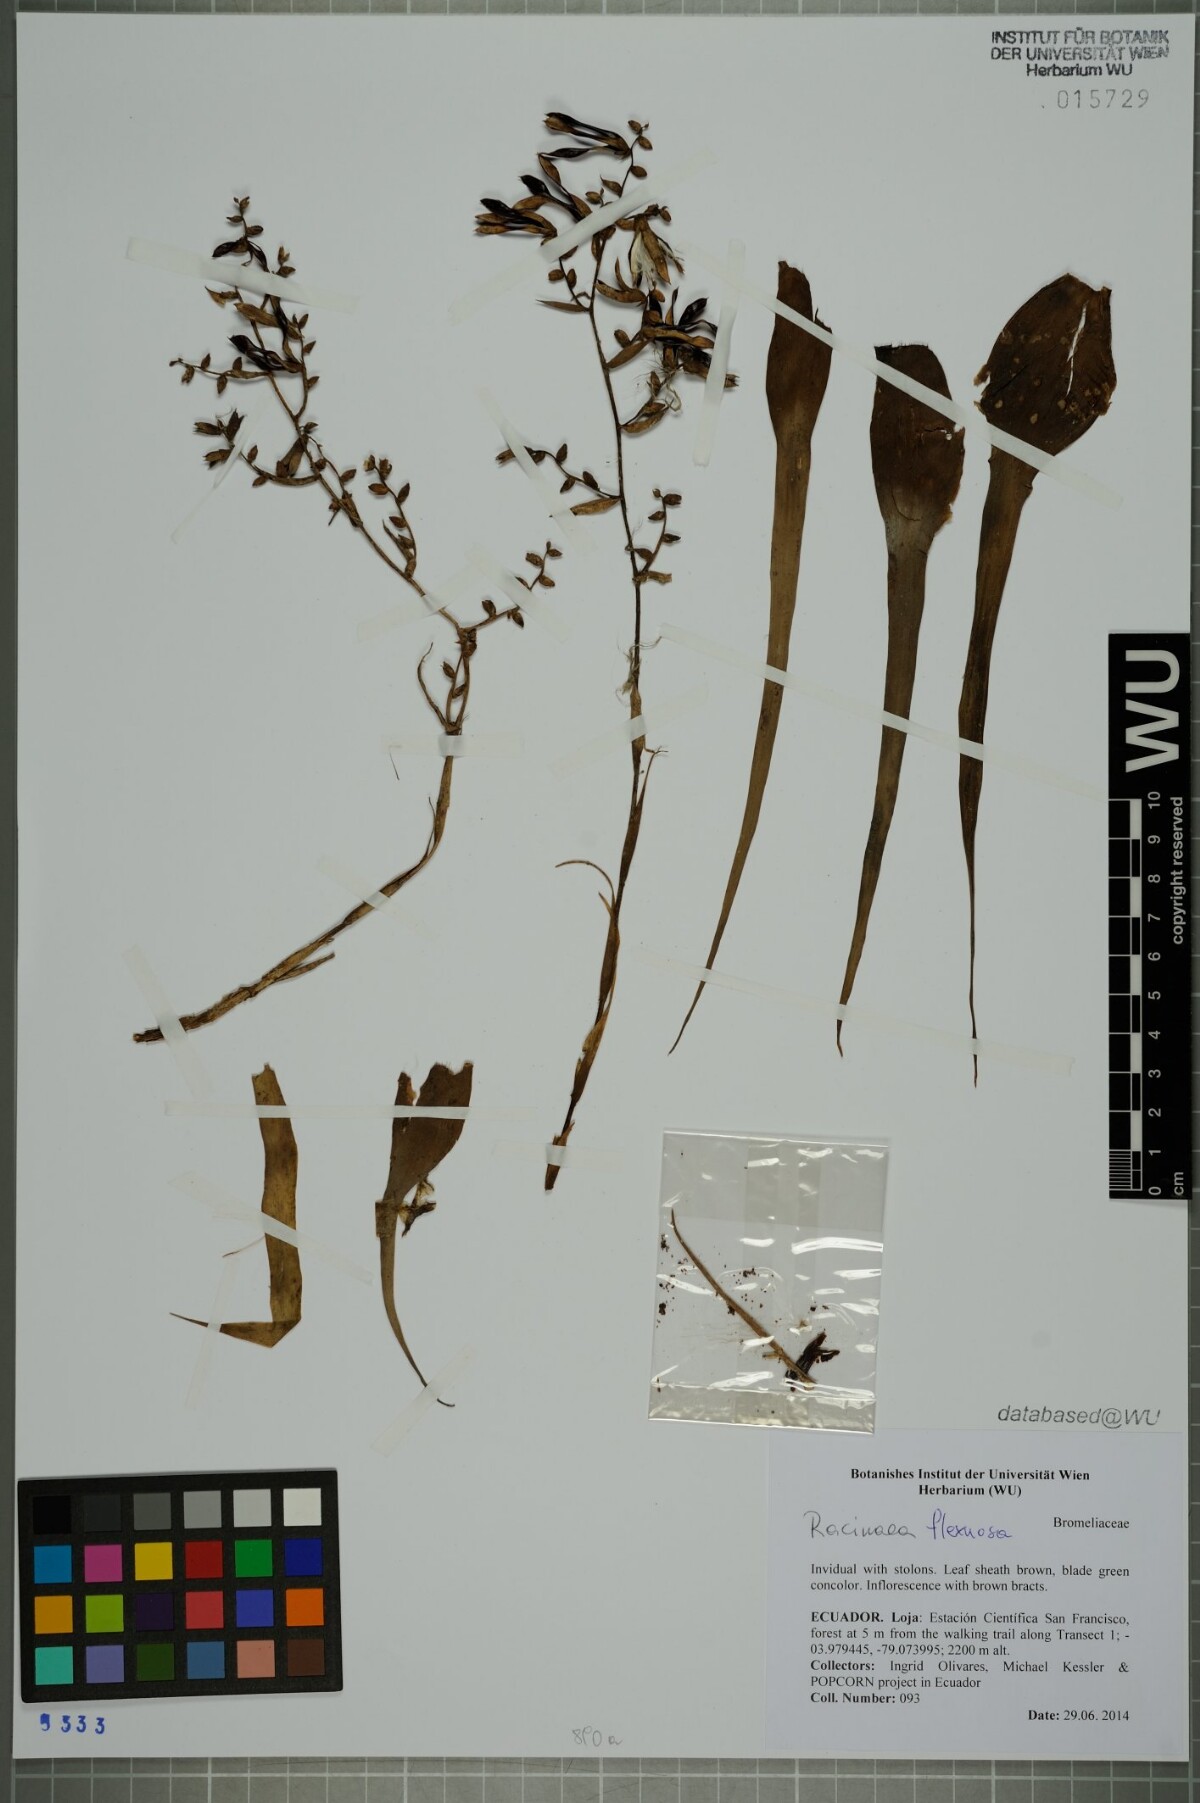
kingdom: Plantae
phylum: Tracheophyta
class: Liliopsida
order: Poales
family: Bromeliaceae
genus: Racinaea
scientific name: Racinaea flexuosa
